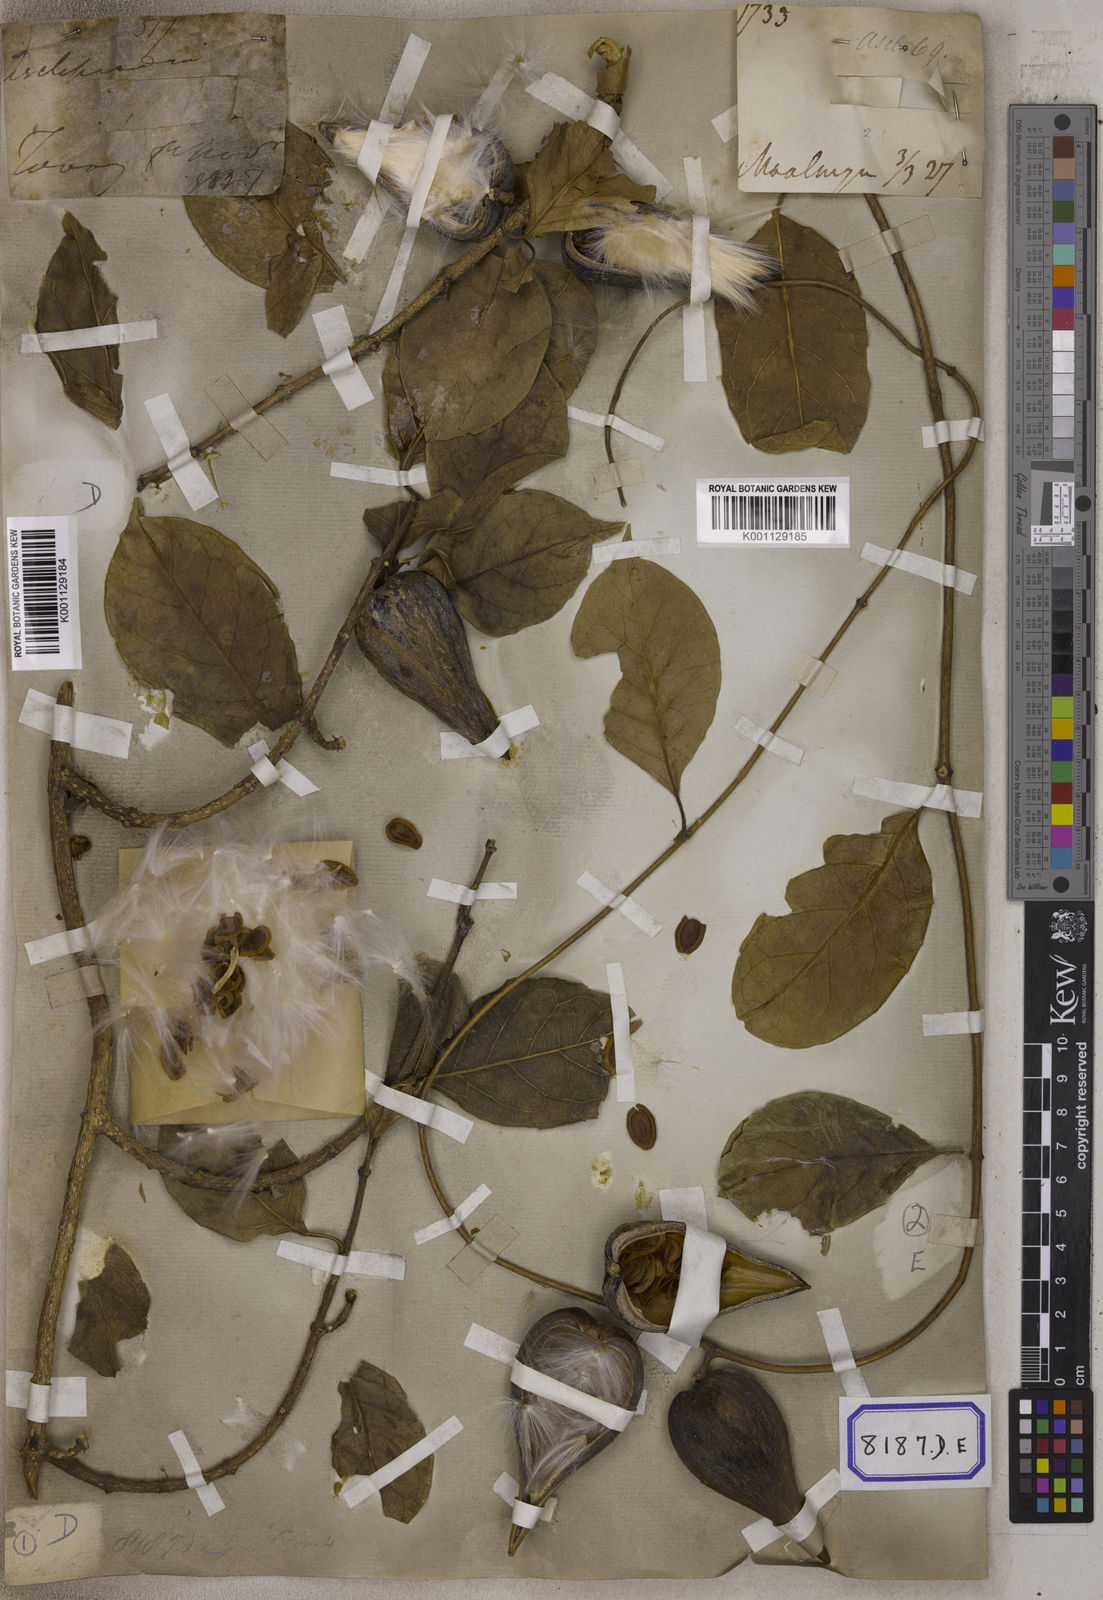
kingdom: Plantae
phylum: Tracheophyta
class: Magnoliopsida
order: Gentianales
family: Apocynaceae
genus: Gymnema
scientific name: Gymnema acuminatum
